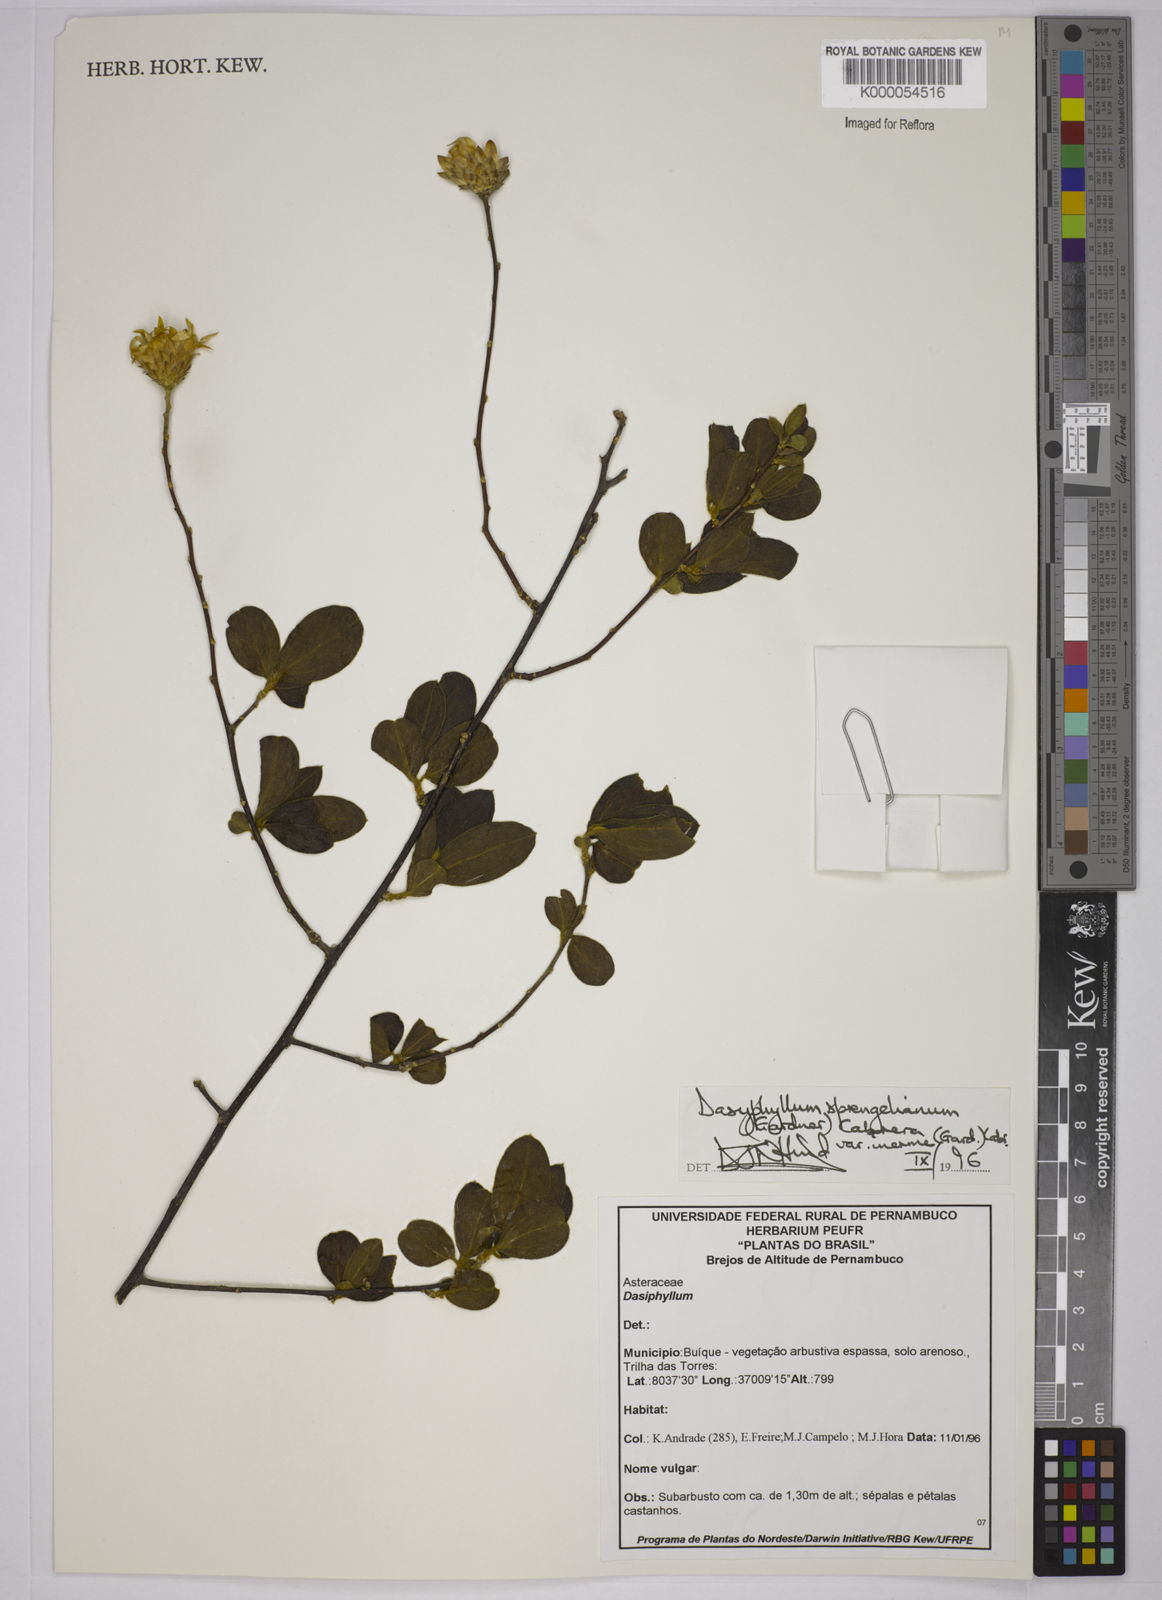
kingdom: Plantae
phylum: Tracheophyta
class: Magnoliopsida
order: Asterales
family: Asteraceae
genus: Dasyphyllum
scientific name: Dasyphyllum sprengelianum
